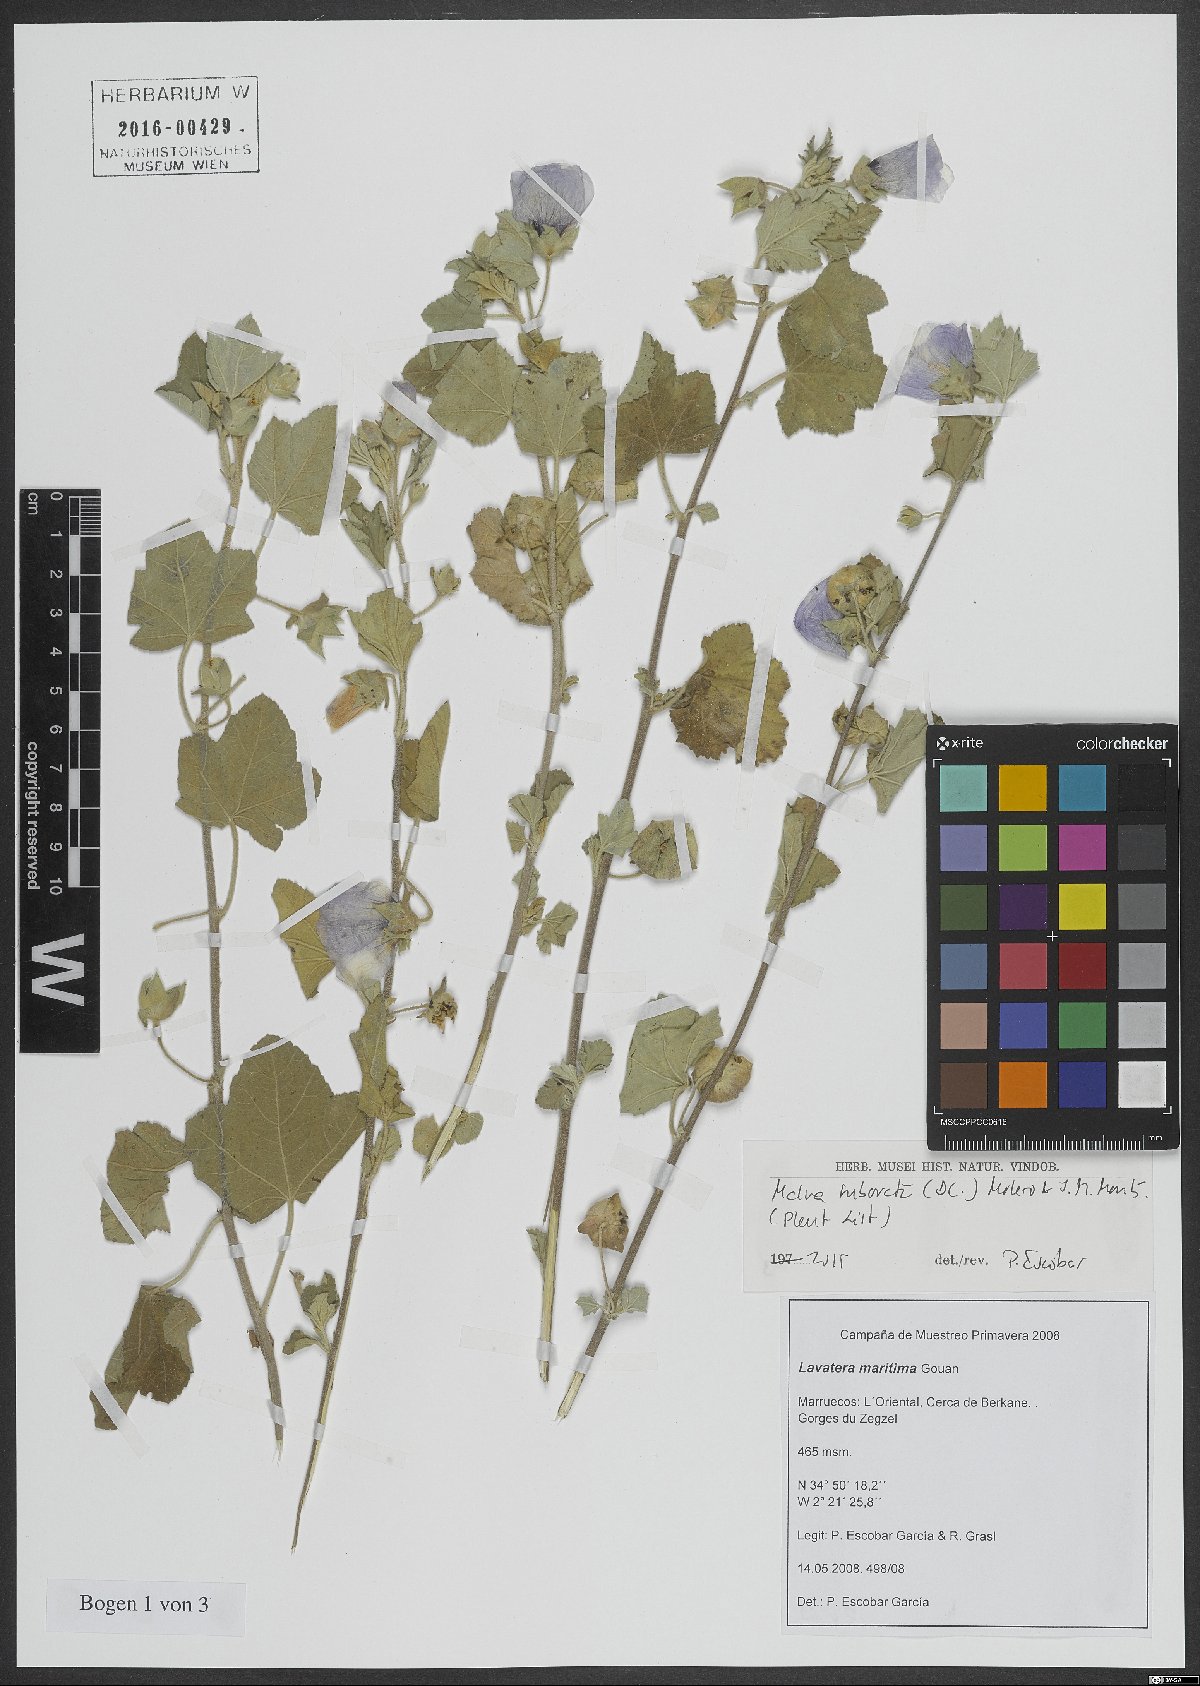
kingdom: Plantae
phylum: Tracheophyta
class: Magnoliopsida
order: Malvales
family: Malvaceae
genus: Malva
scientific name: Malva subovata
